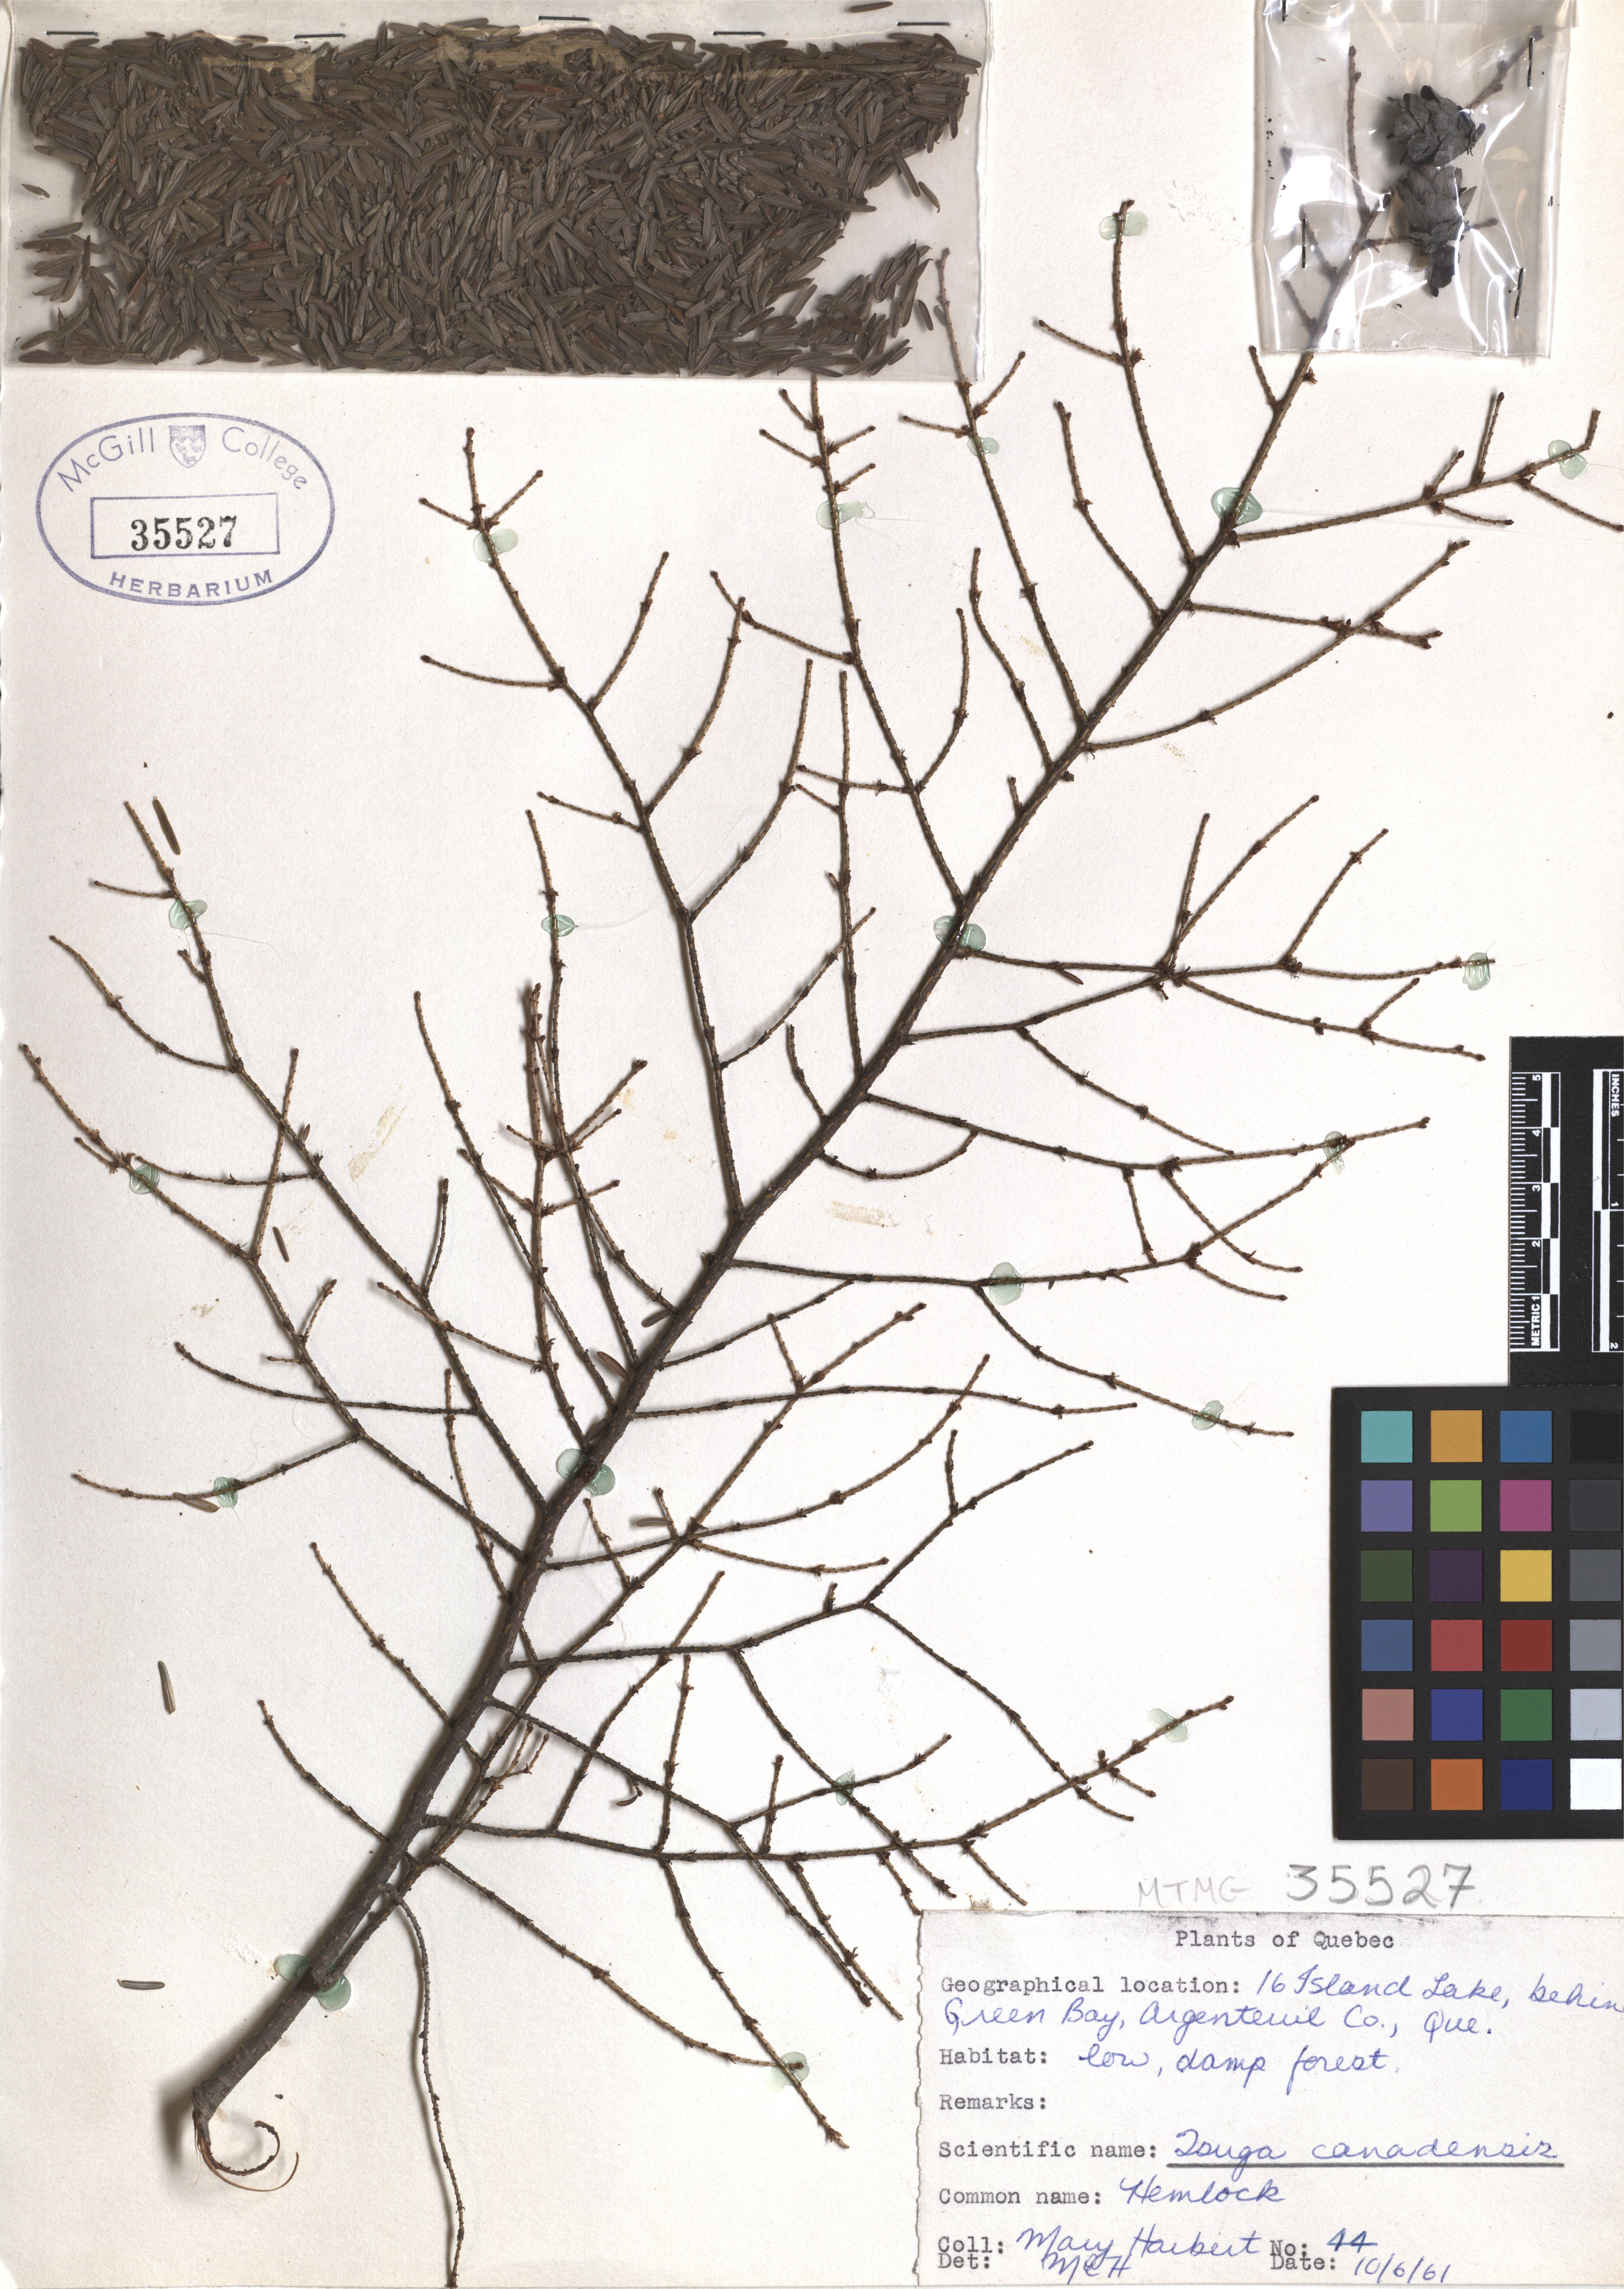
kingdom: Plantae
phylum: Tracheophyta
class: Pinopsida
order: Pinales
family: Pinaceae
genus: Tsuga
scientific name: Tsuga canadensis
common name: Eastern hemlock
